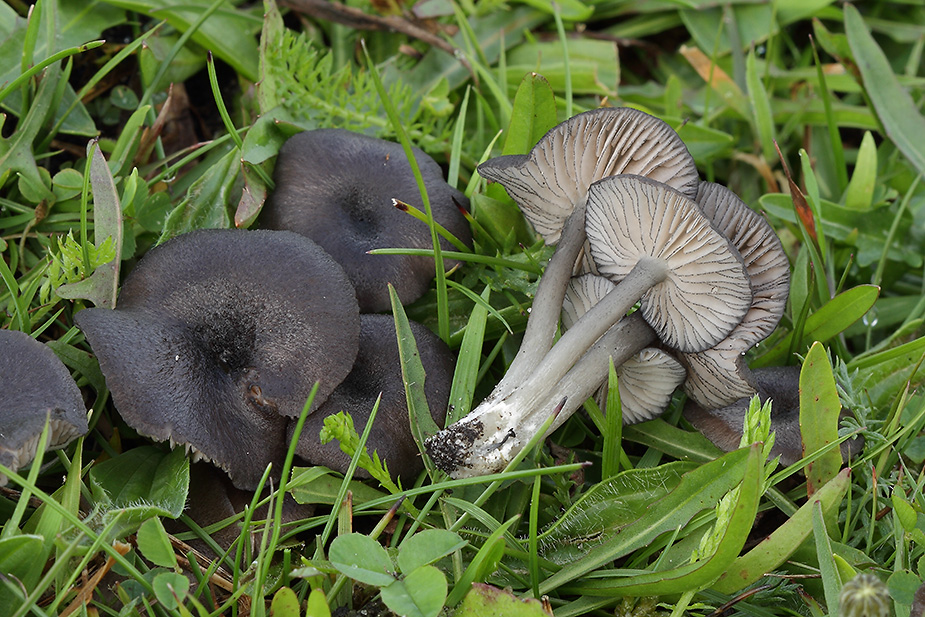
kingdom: Fungi
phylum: Basidiomycota
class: Agaricomycetes
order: Agaricales
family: Entolomataceae
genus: Entoloma
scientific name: Entoloma serrulatum
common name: savbladet rødblad
